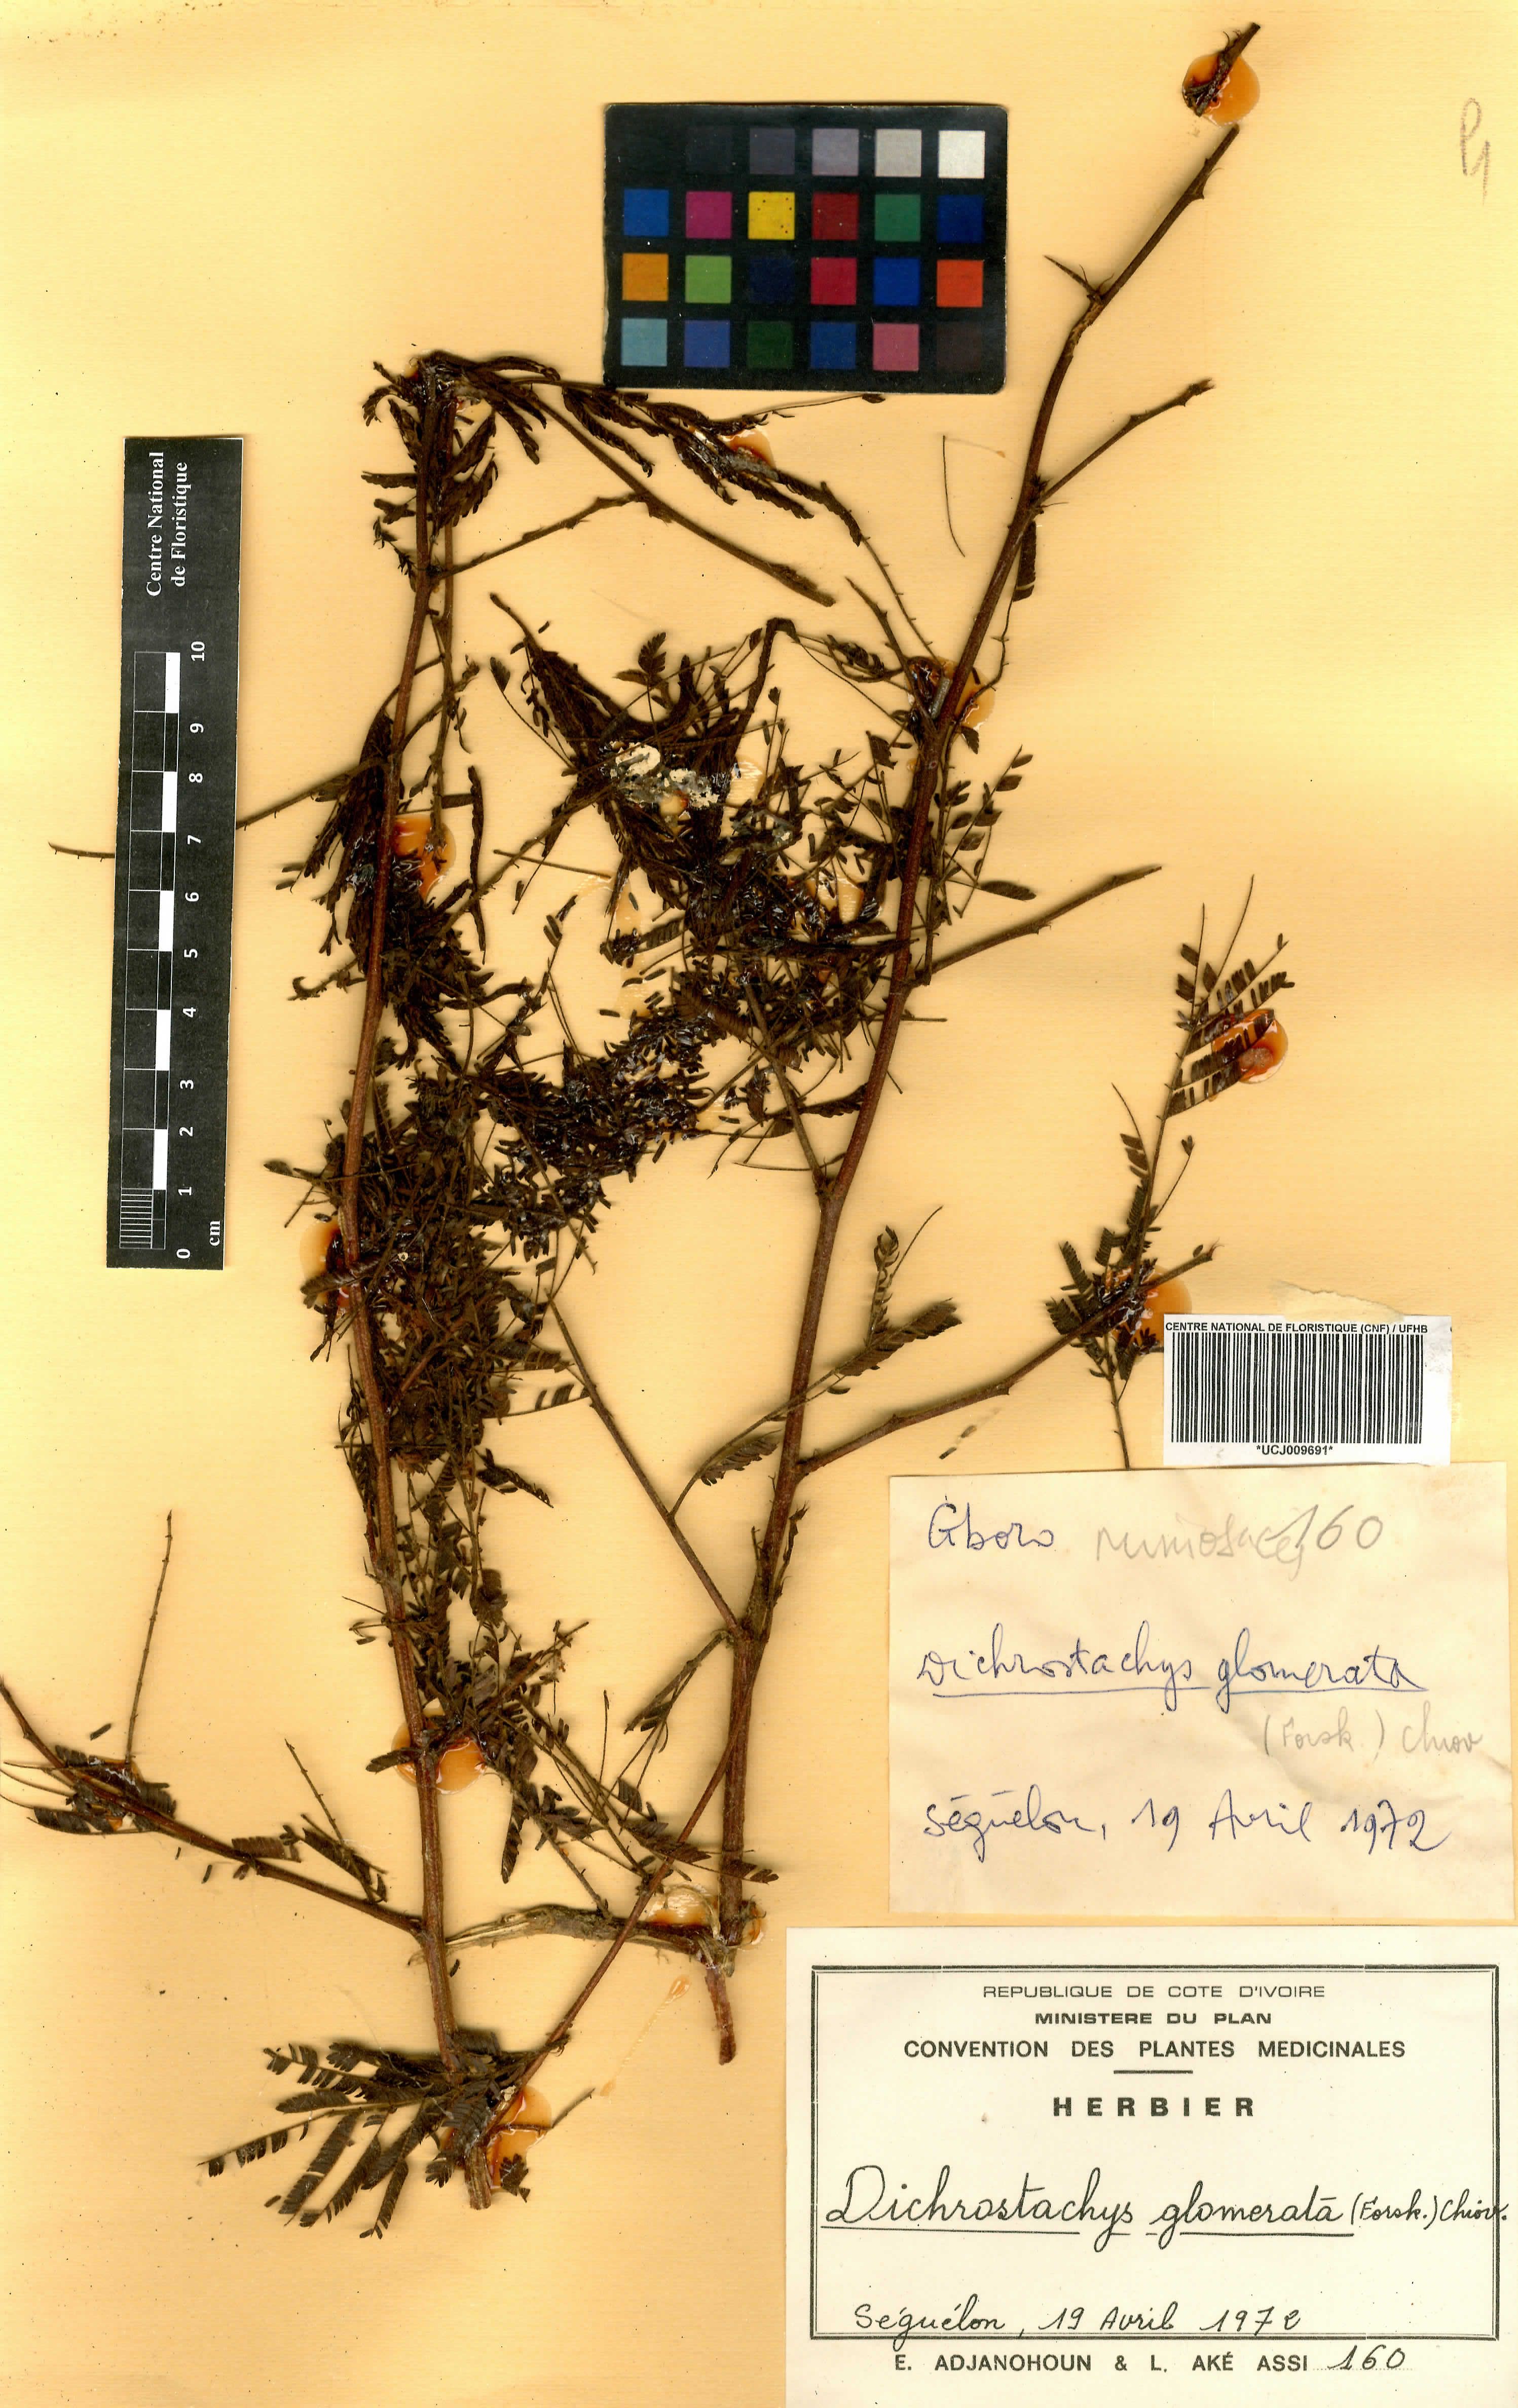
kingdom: Plantae
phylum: Tracheophyta
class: Magnoliopsida
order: Fabales
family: Fabaceae
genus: Dichrostachys
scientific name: Dichrostachys cinerea
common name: Sicklebush
